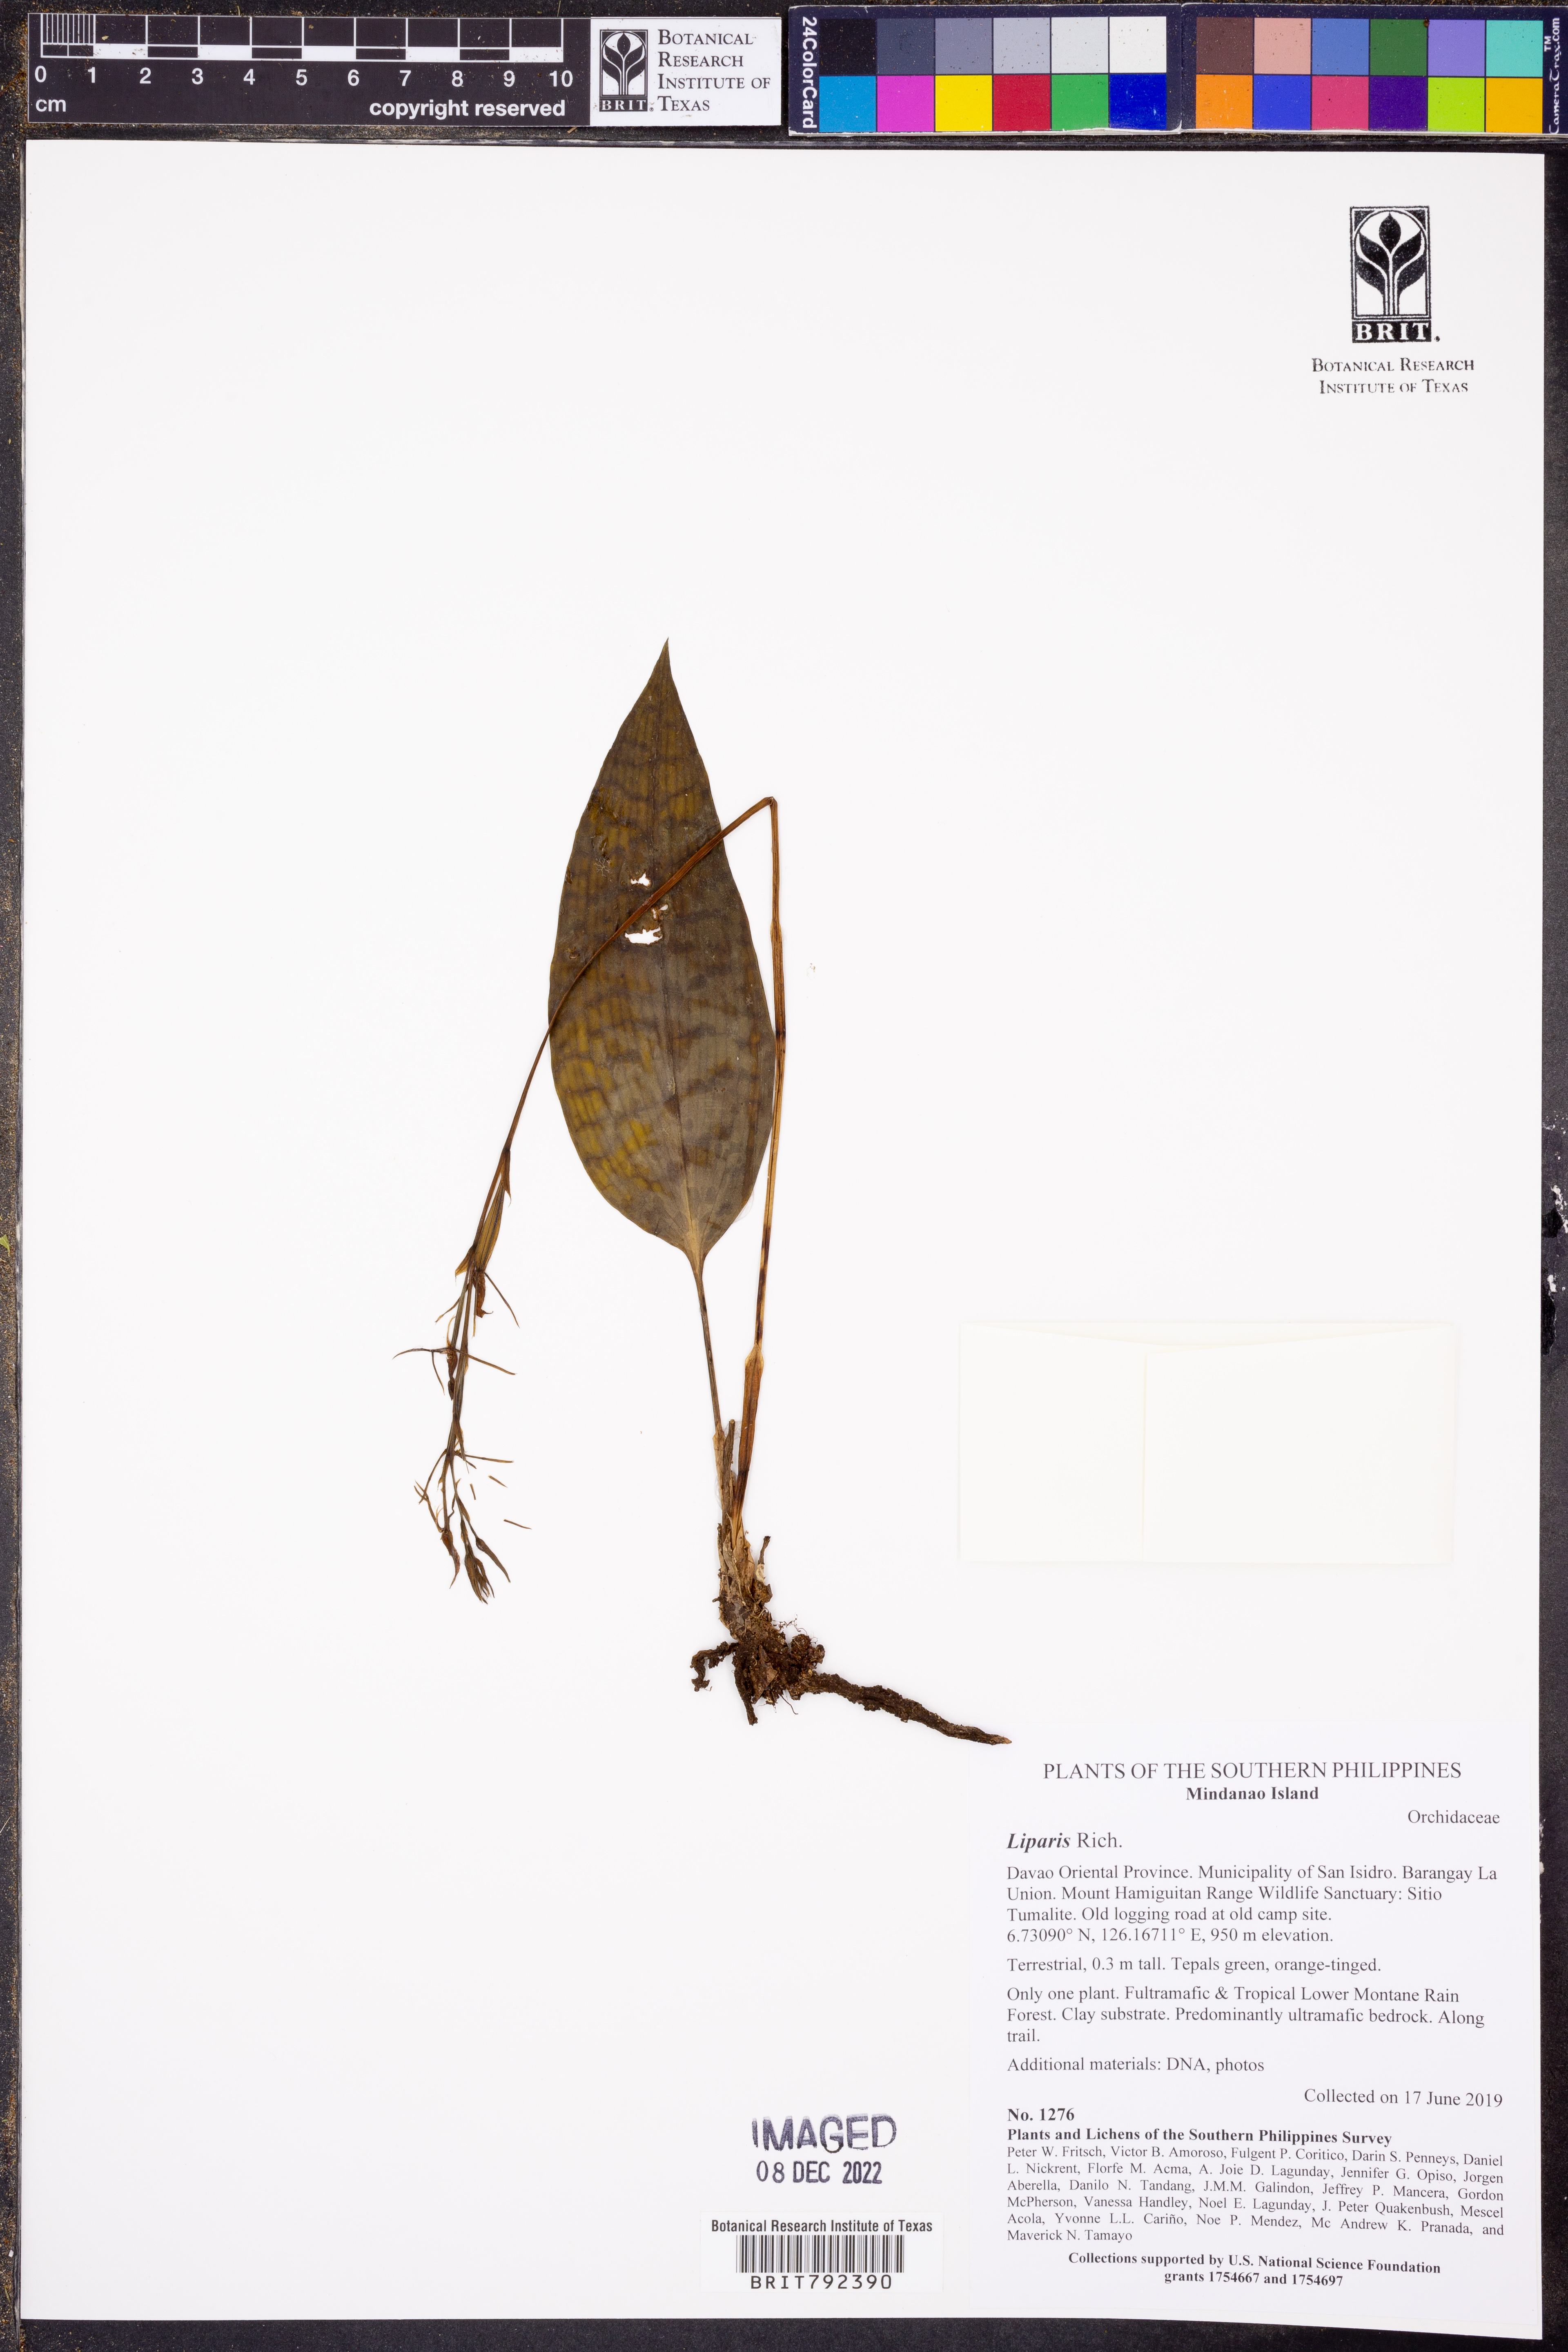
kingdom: Plantae
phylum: Tracheophyta
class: Liliopsida
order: Asparagales
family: Orchidaceae
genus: Liparis
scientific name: Liparis
